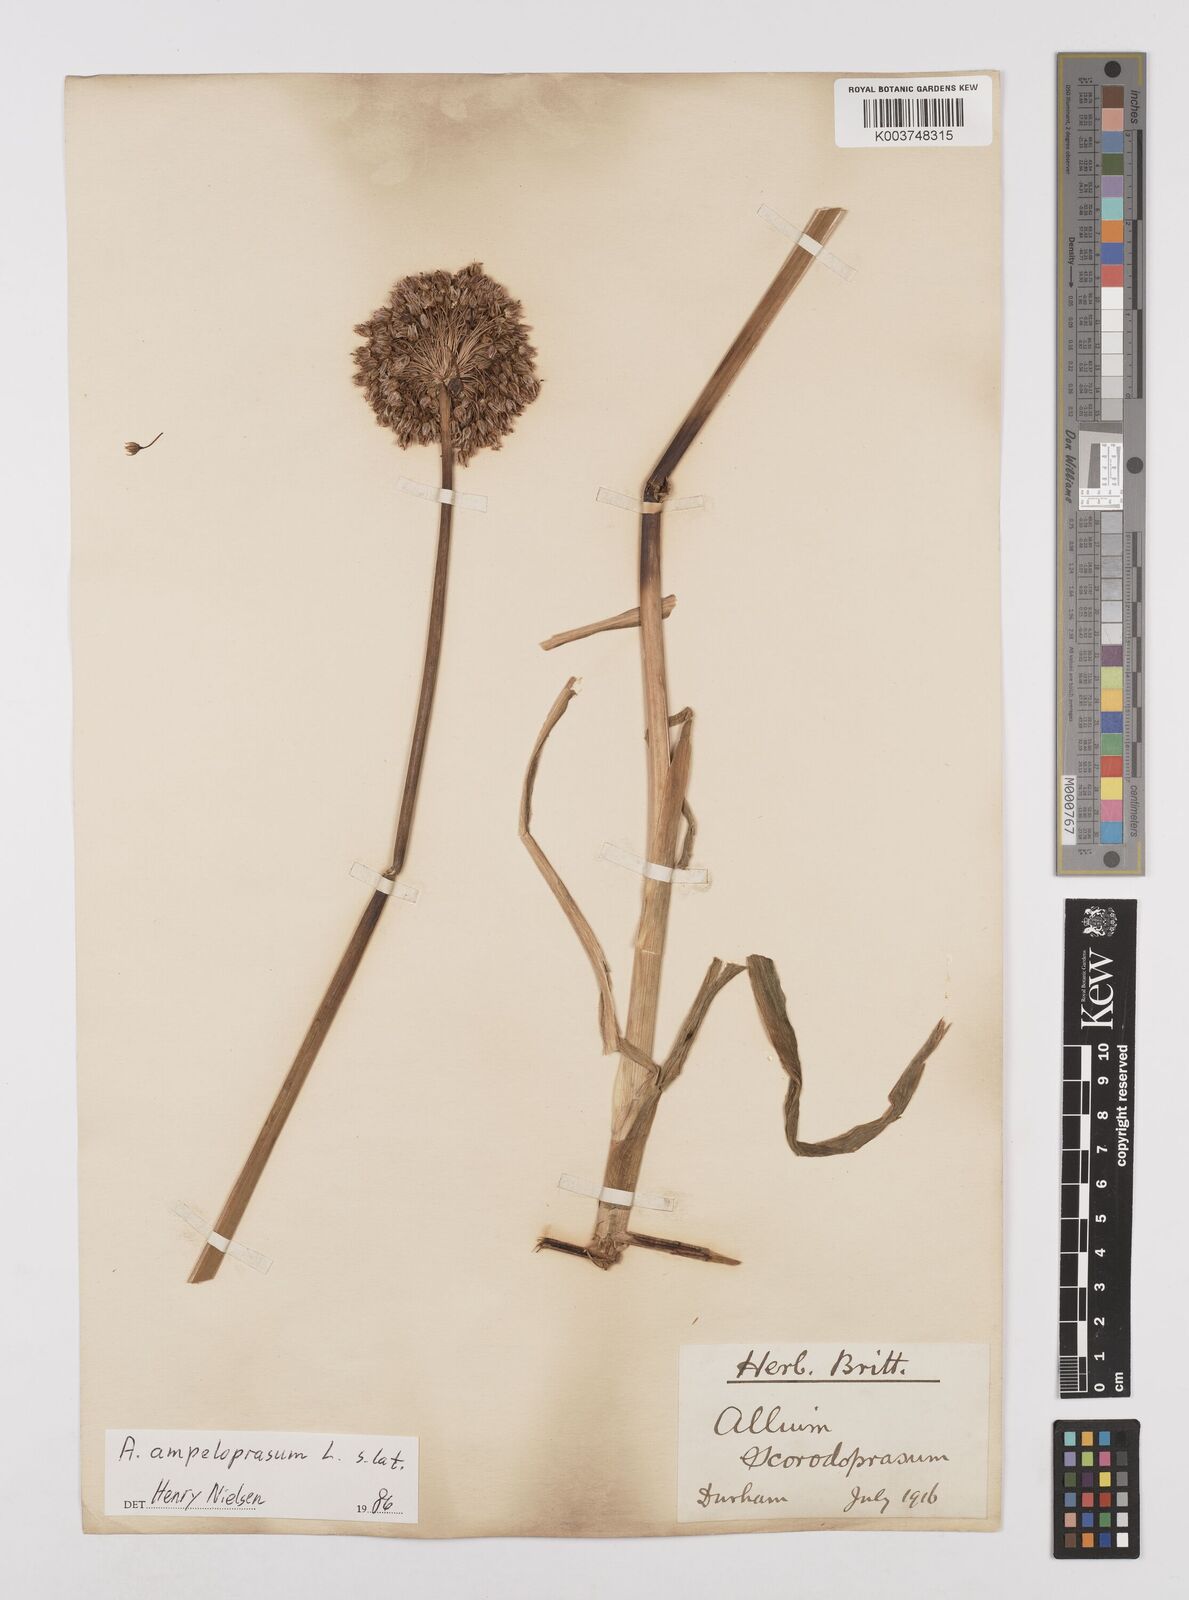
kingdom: Plantae
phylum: Tracheophyta
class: Liliopsida
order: Asparagales
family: Amaryllidaceae
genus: Allium
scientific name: Allium
